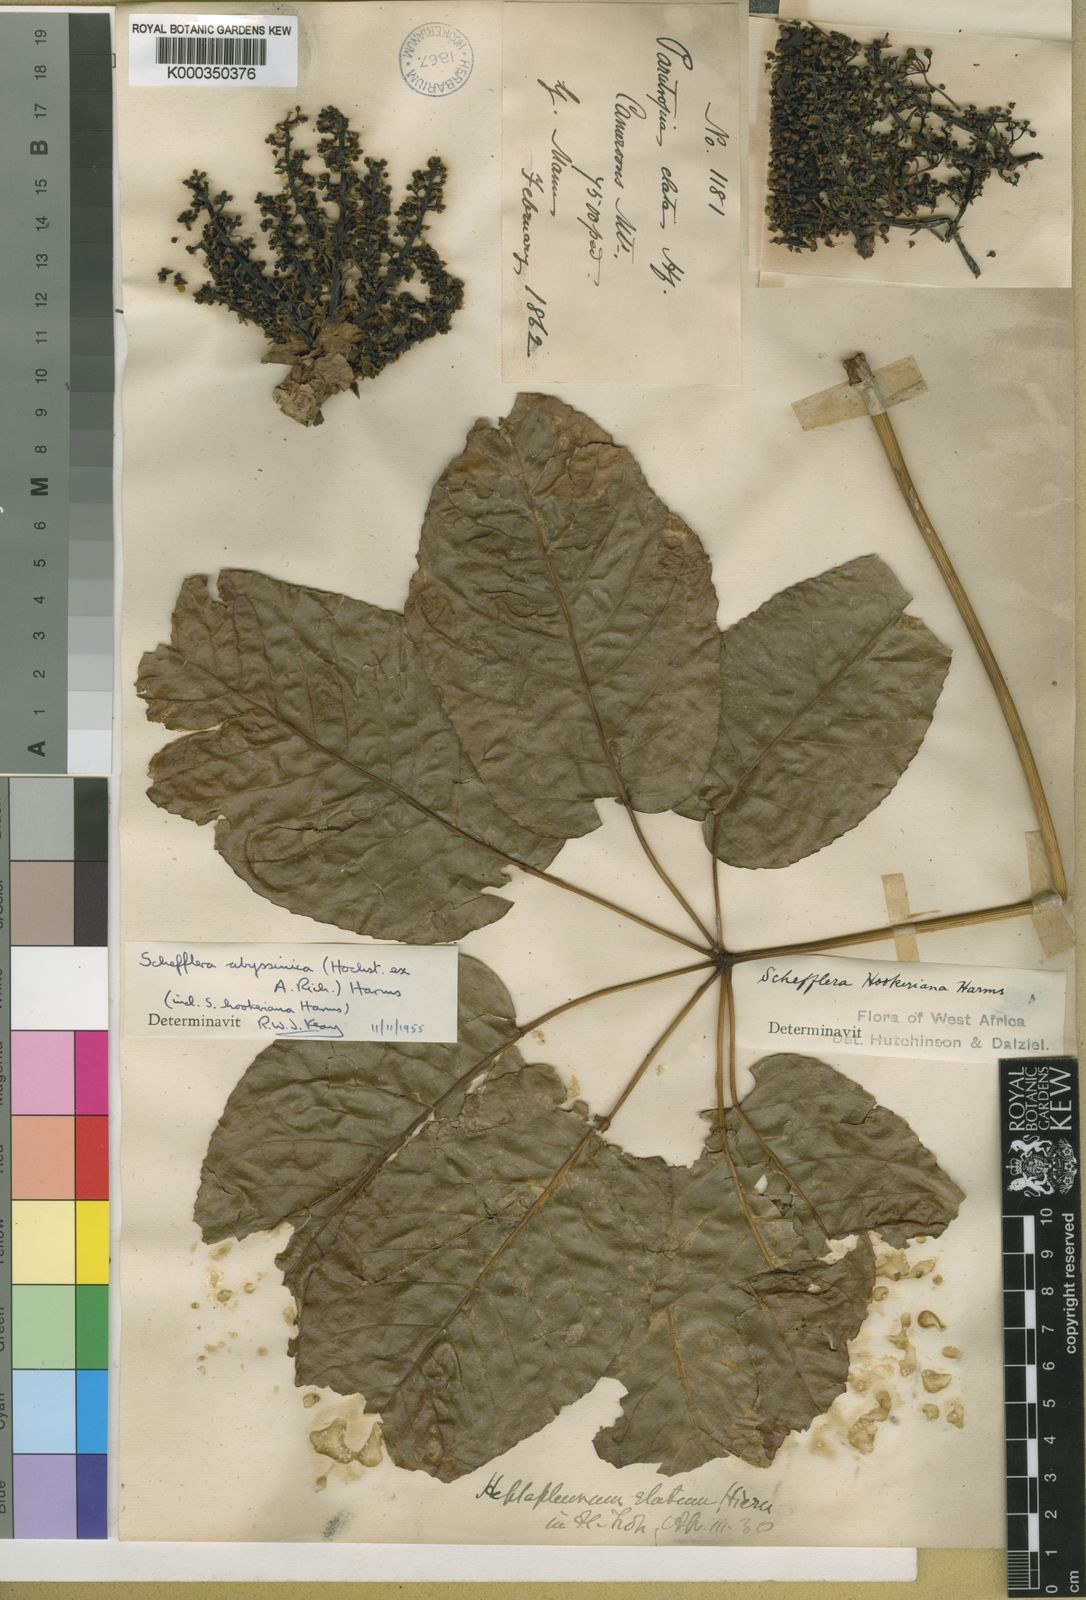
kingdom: Plantae
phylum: Tracheophyta
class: Magnoliopsida
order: Apiales
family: Araliaceae
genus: Astropanax
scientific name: Astropanax abyssinicum
